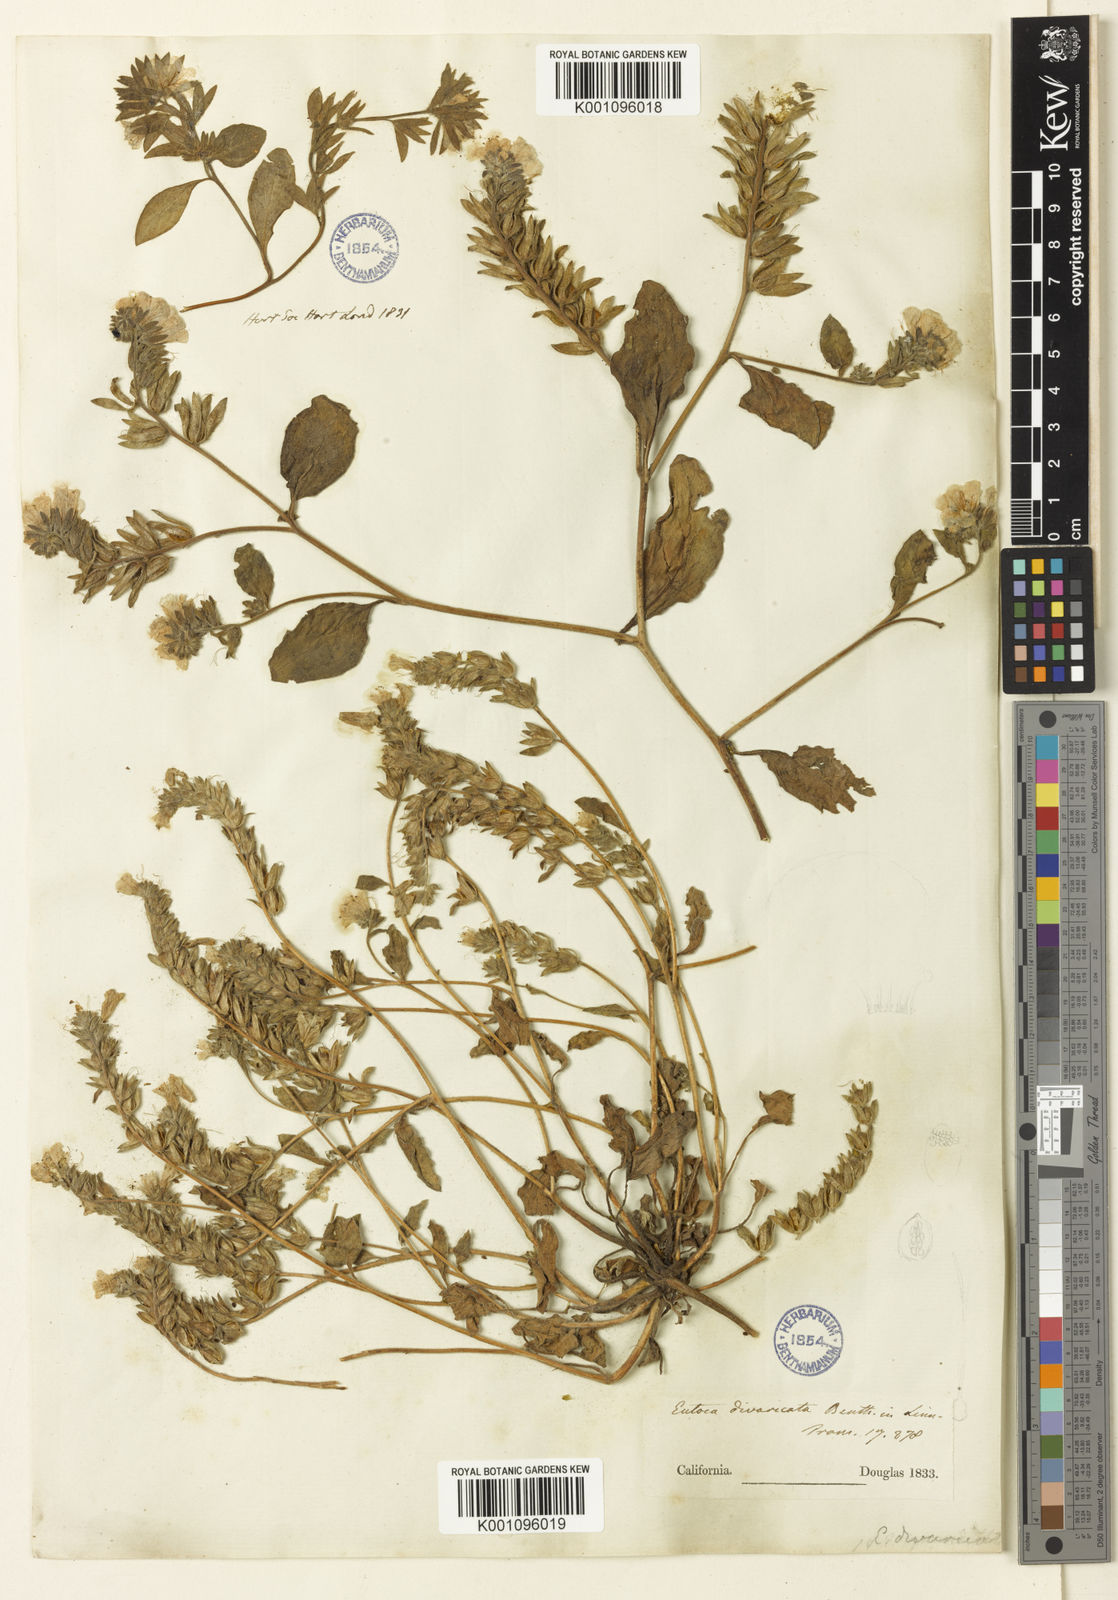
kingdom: Plantae
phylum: Tracheophyta
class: Magnoliopsida
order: Boraginales
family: Hydrophyllaceae
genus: Phacelia
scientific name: Phacelia divaricata
